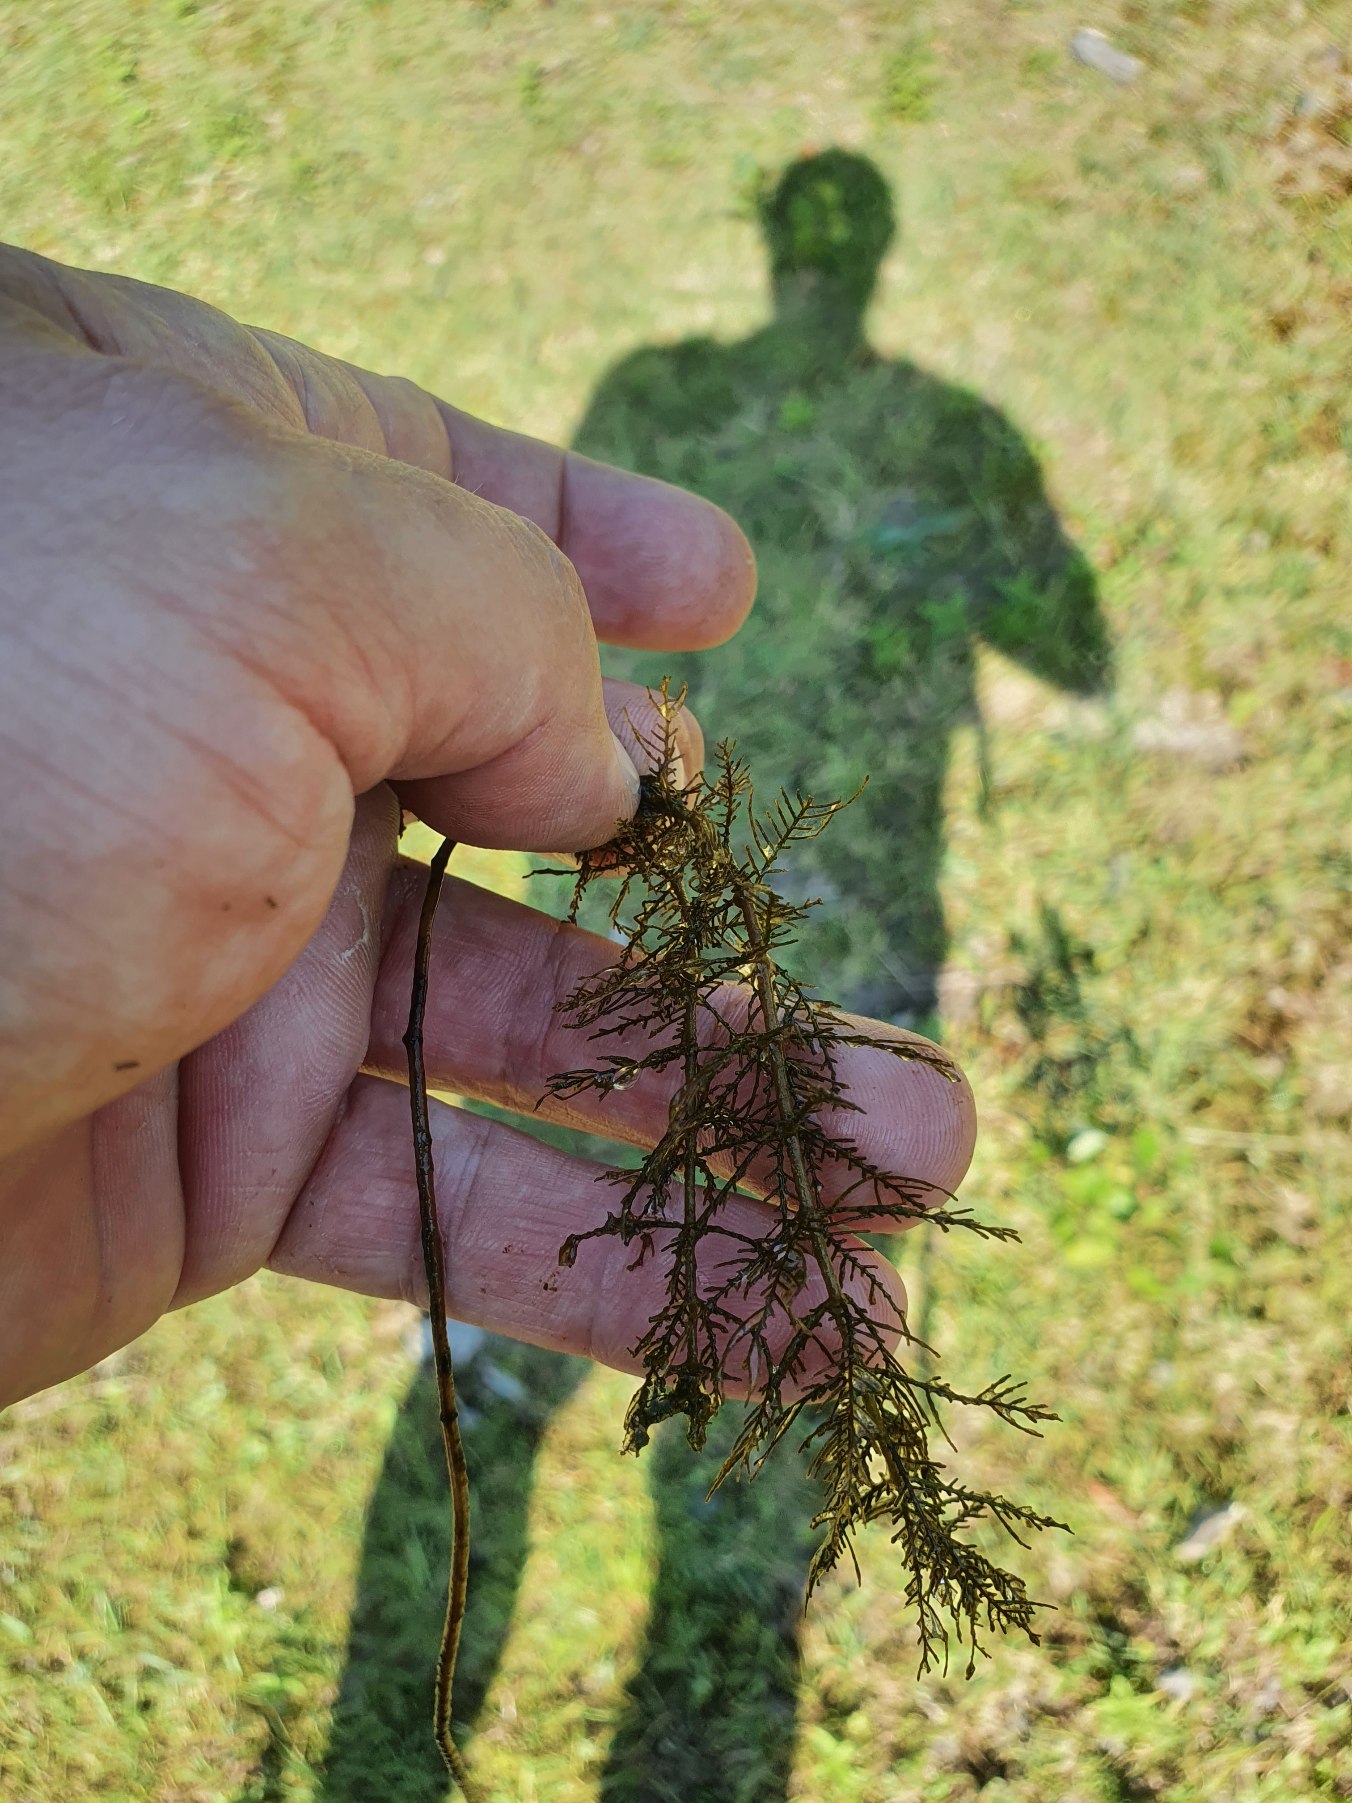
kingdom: Plantae
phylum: Tracheophyta
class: Magnoliopsida
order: Saxifragales
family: Haloragaceae
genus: Myriophyllum
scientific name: Myriophyllum spicatum
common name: Aks-tusindblad
